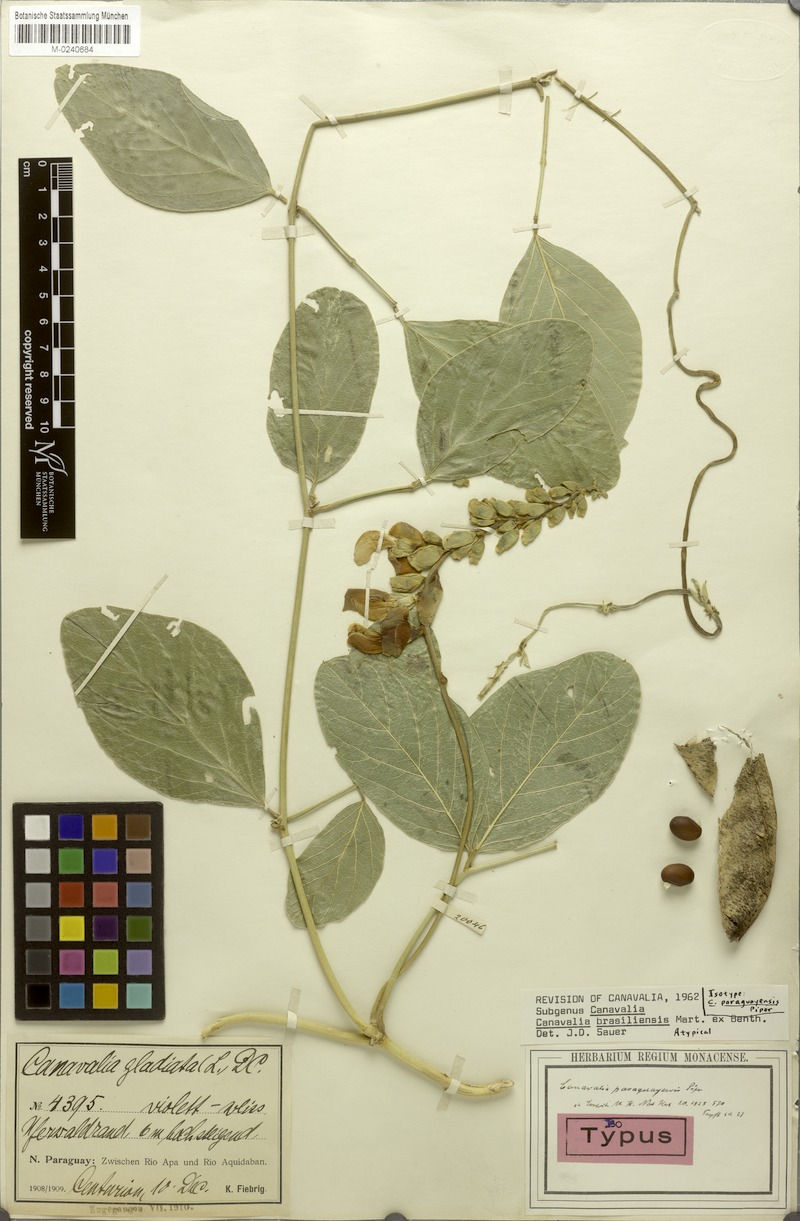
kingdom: Plantae
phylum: Tracheophyta
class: Magnoliopsida
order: Fabales
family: Fabaceae
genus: Canavalia
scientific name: Canavalia brasiliensis
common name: Barbicou-bean
